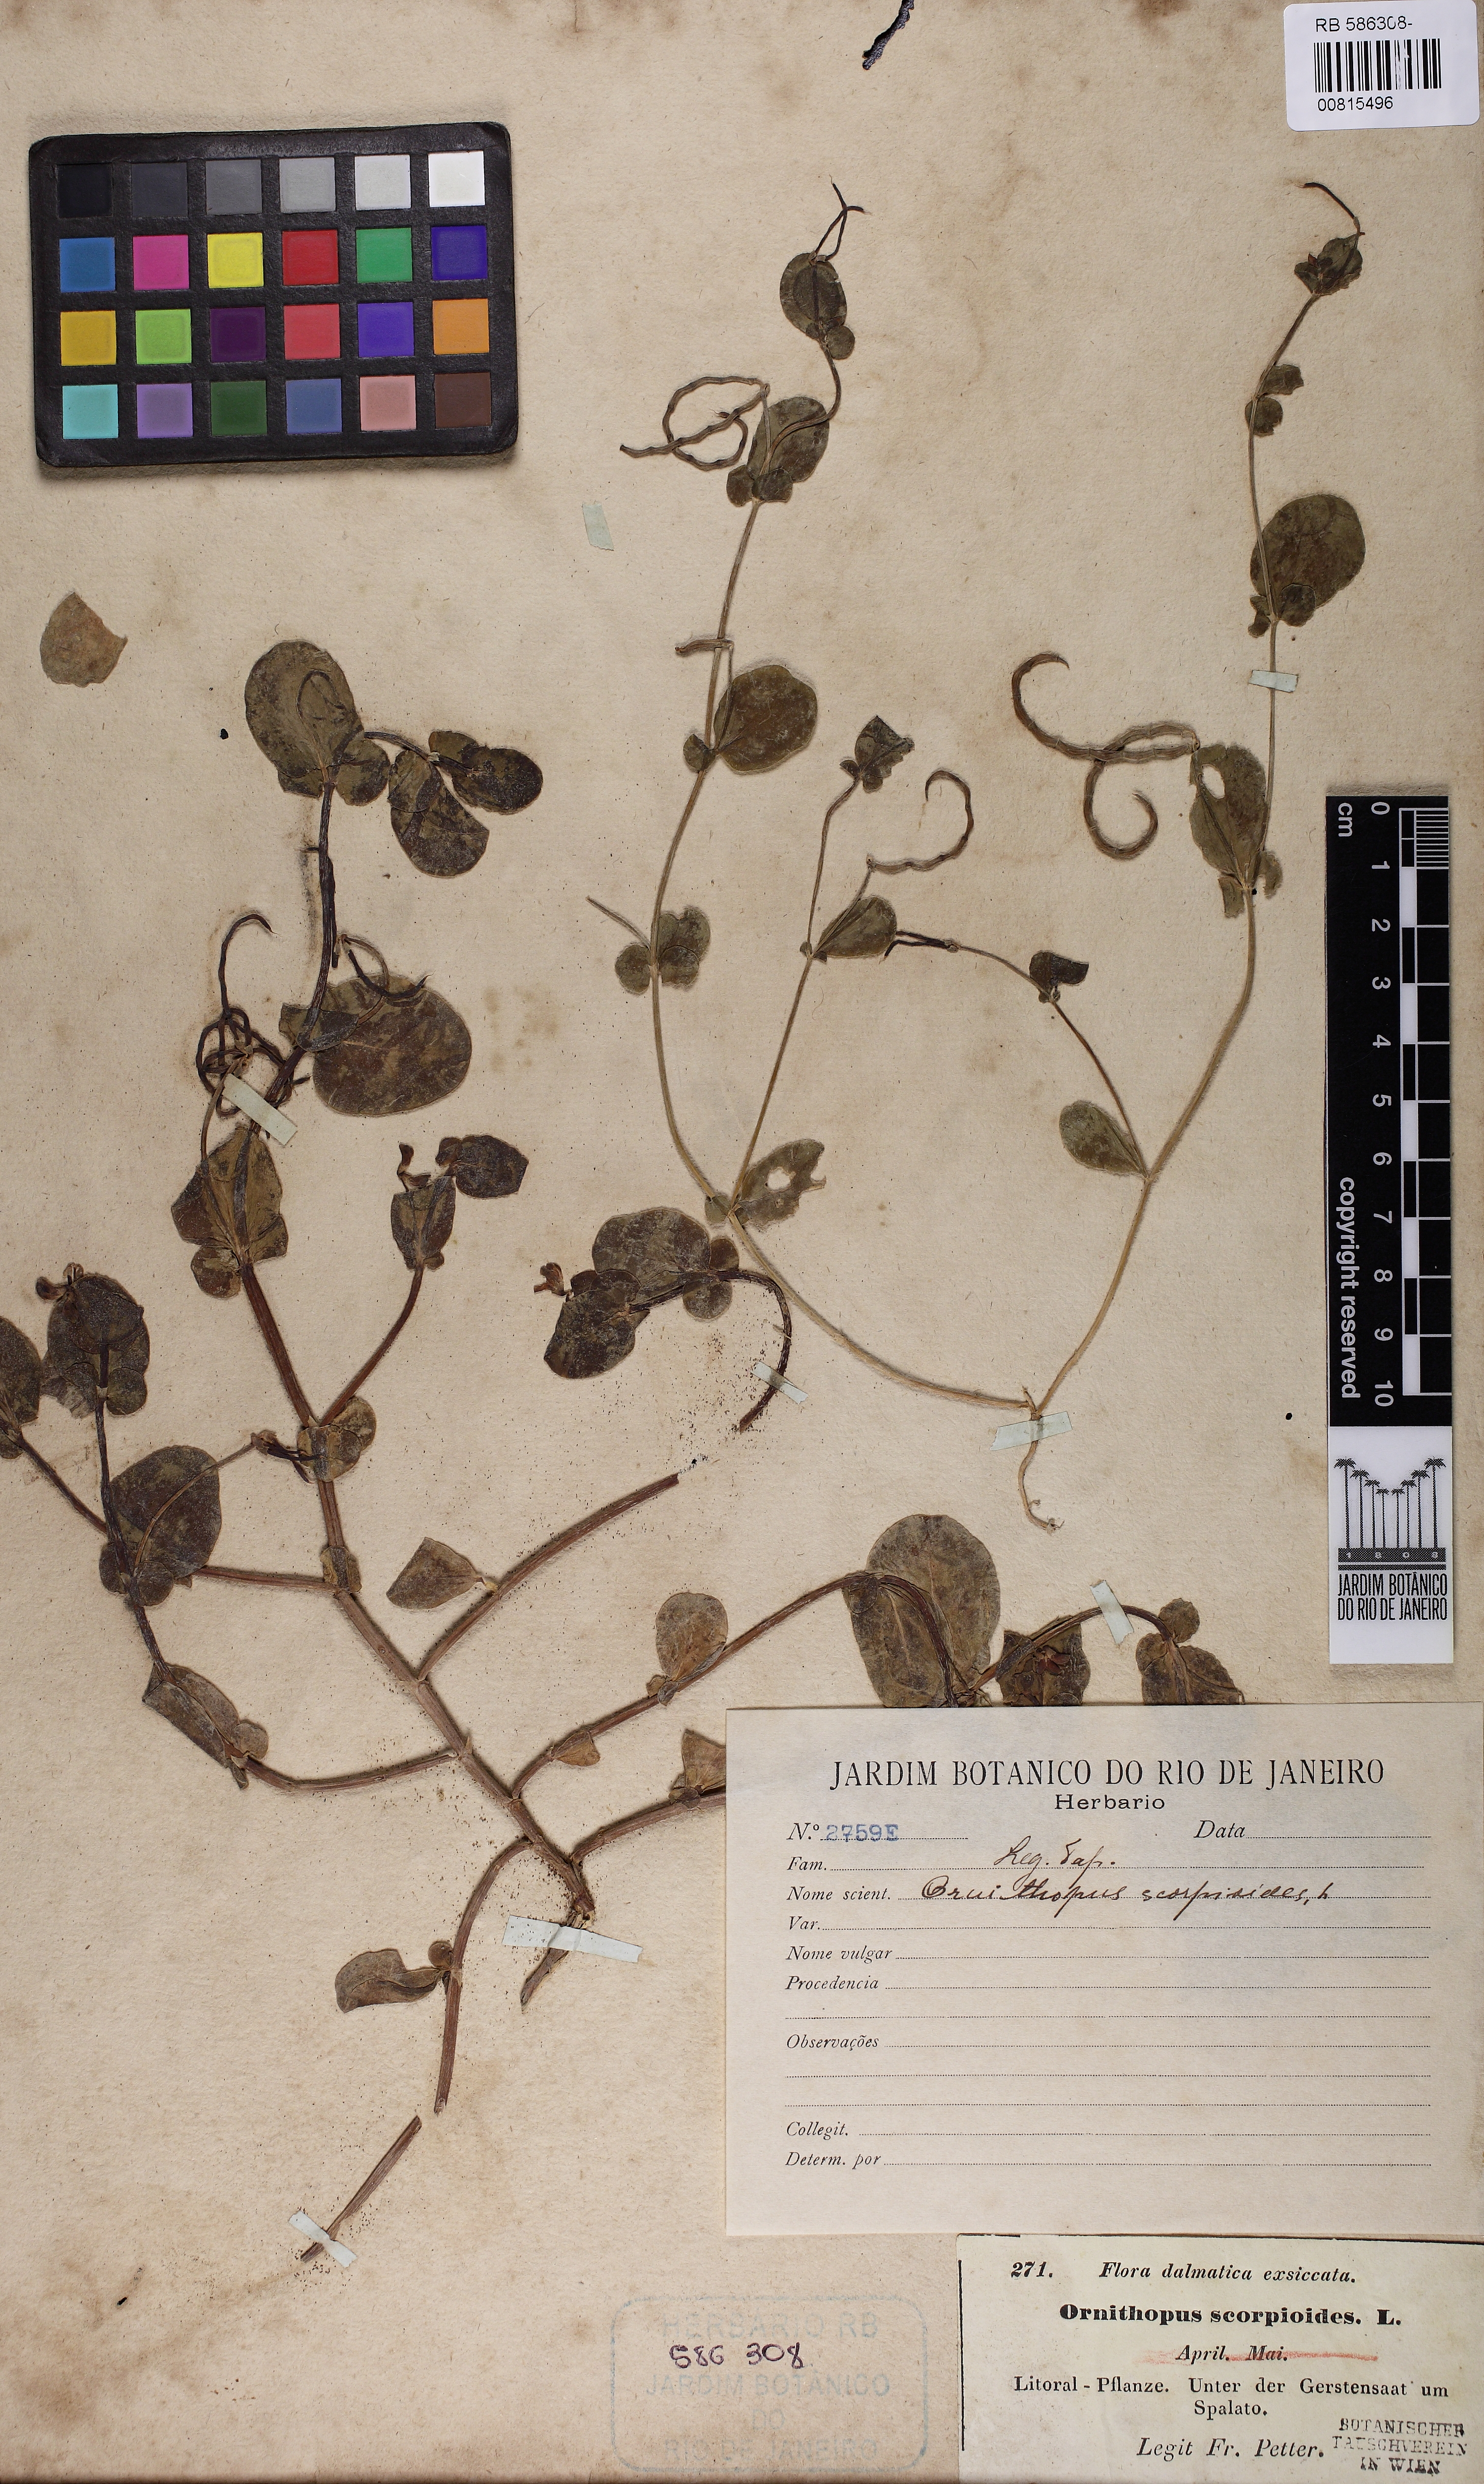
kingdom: Plantae
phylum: Tracheophyta
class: Magnoliopsida
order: Fabales
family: Fabaceae
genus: Coronilla
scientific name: Coronilla scorpioides
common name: Annual scorpion-vetch
